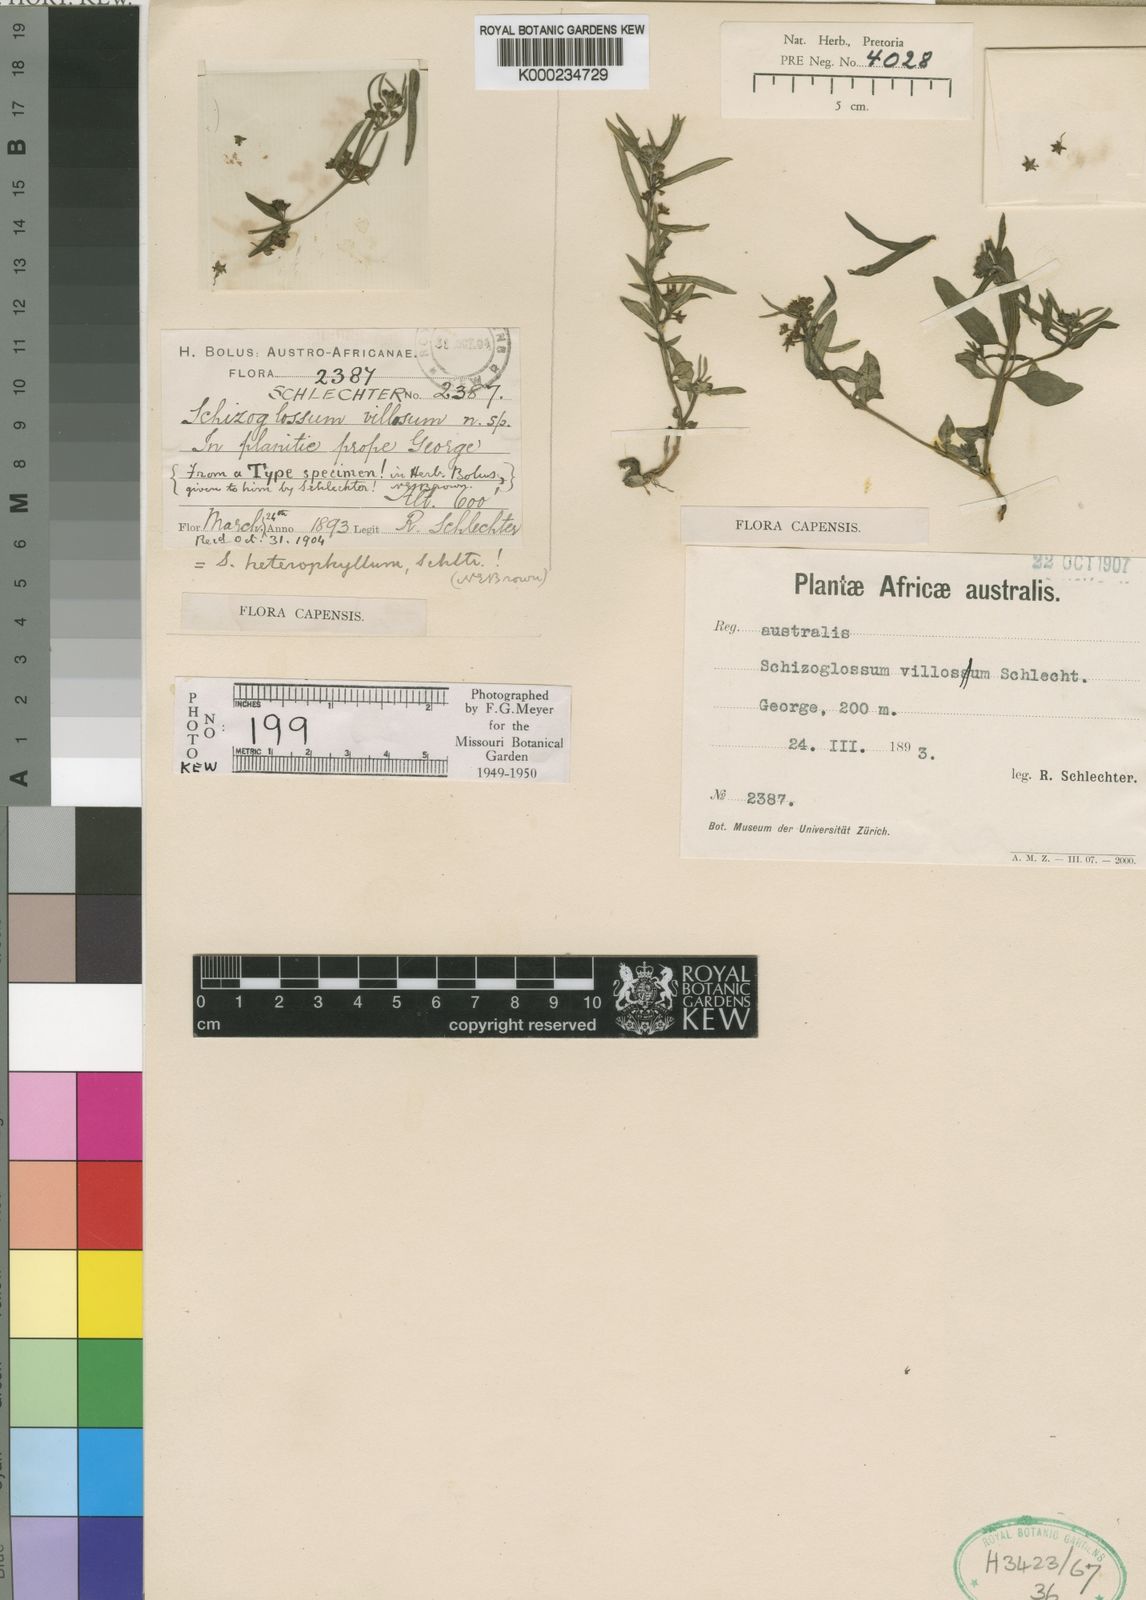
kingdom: Plantae
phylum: Tracheophyta
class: Magnoliopsida
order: Gentianales
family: Apocynaceae
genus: Aspidoglossum
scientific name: Aspidoglossum heterophyllum
